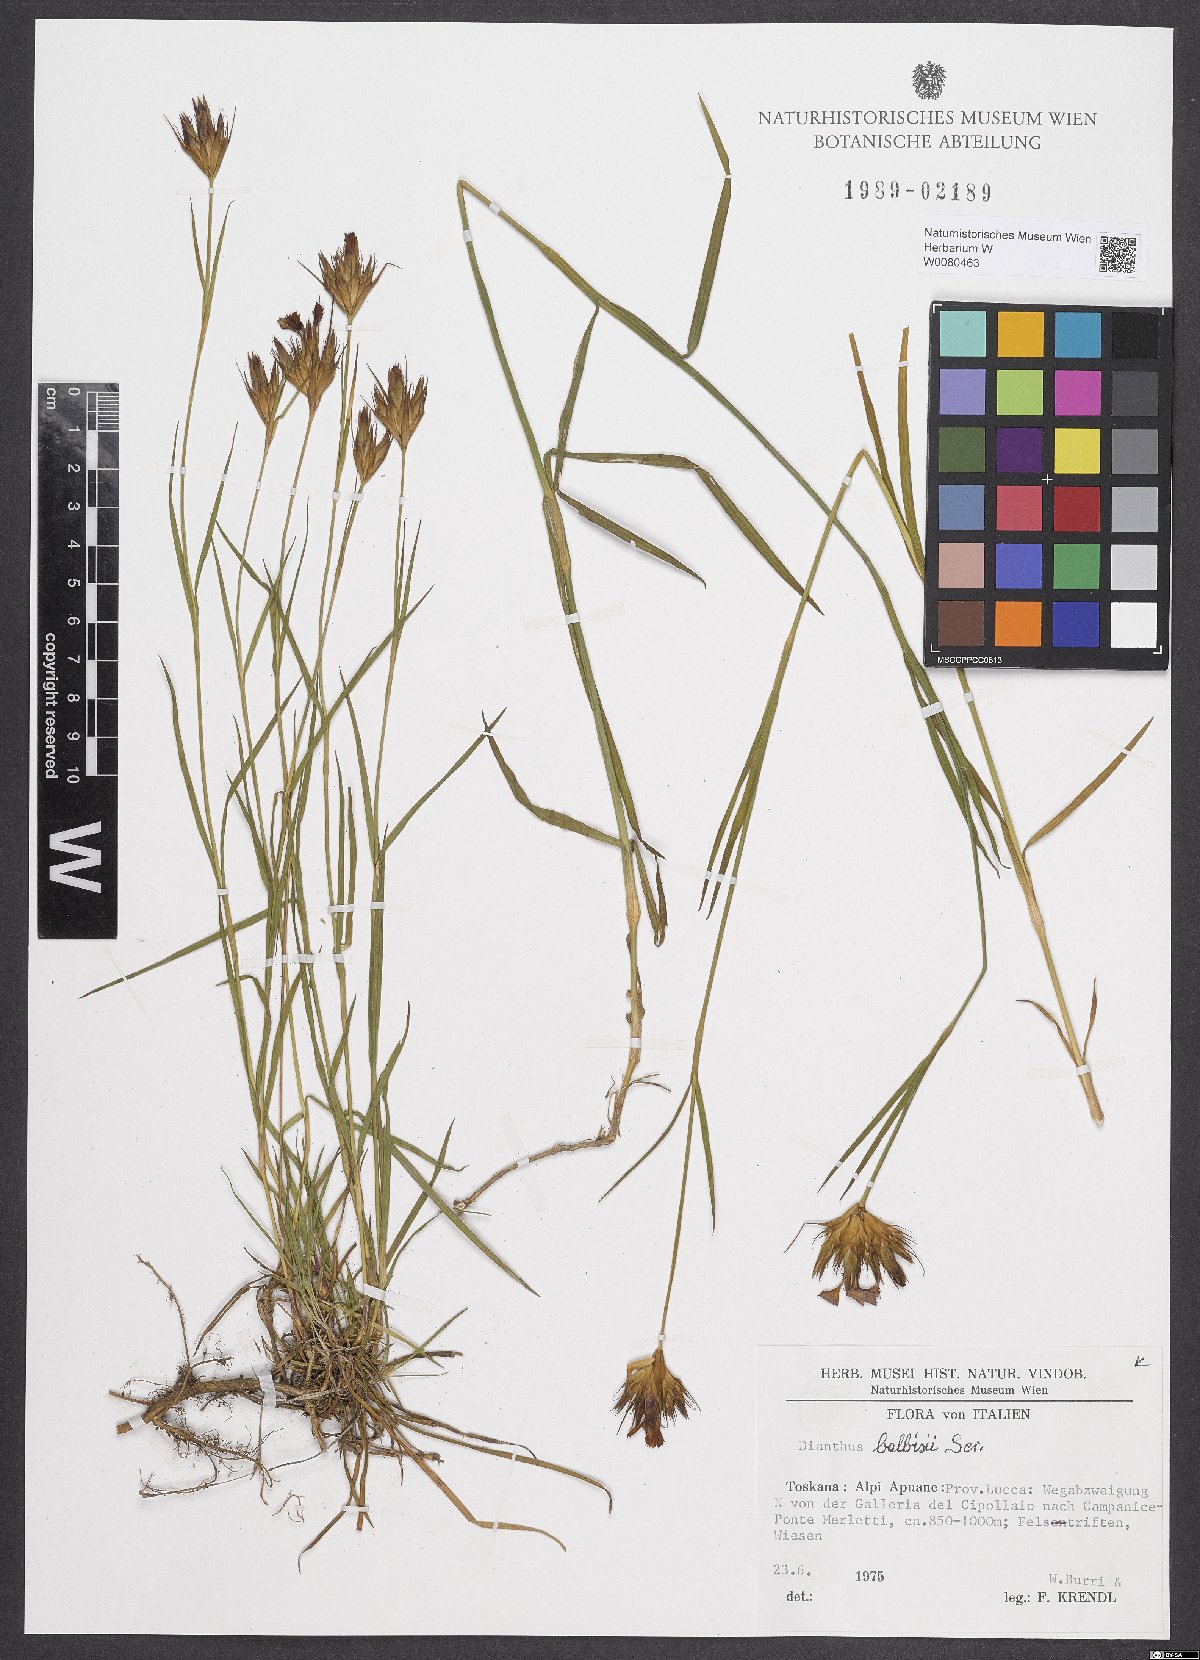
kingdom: Plantae
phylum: Tracheophyta
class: Magnoliopsida
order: Caryophyllales
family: Caryophyllaceae
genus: Dianthus
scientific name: Dianthus balbisii
